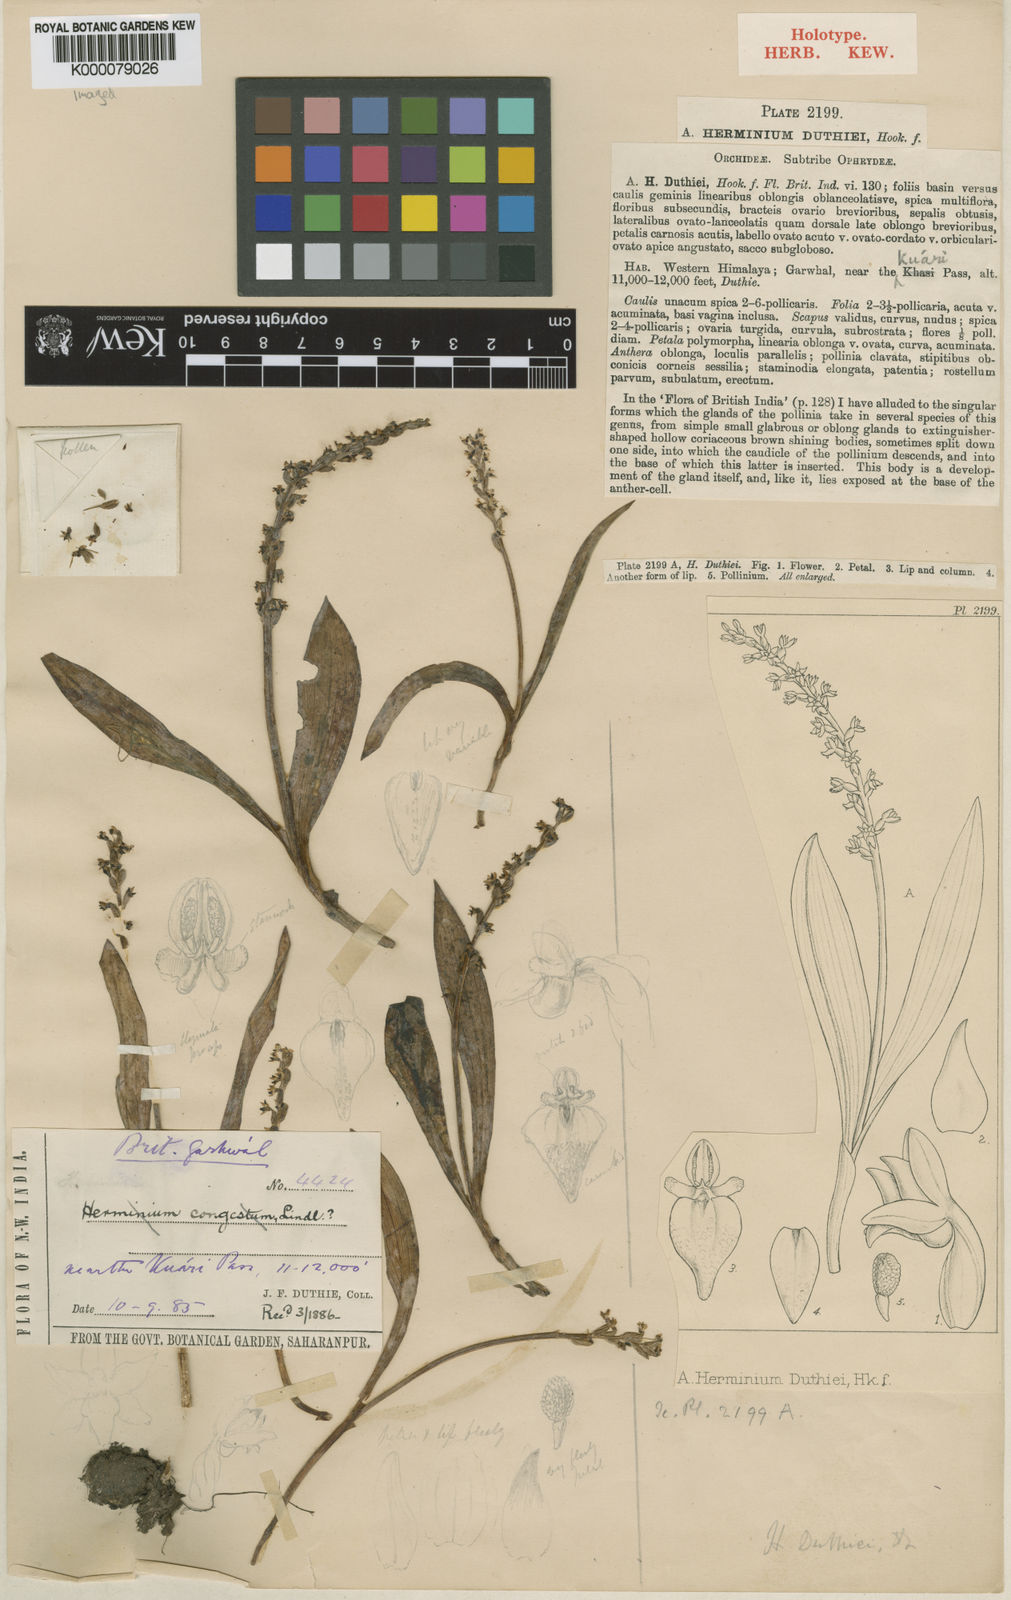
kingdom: Plantae
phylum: Tracheophyta
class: Liliopsida
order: Asparagales
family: Orchidaceae
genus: Herminium
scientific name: Herminium lanceum
